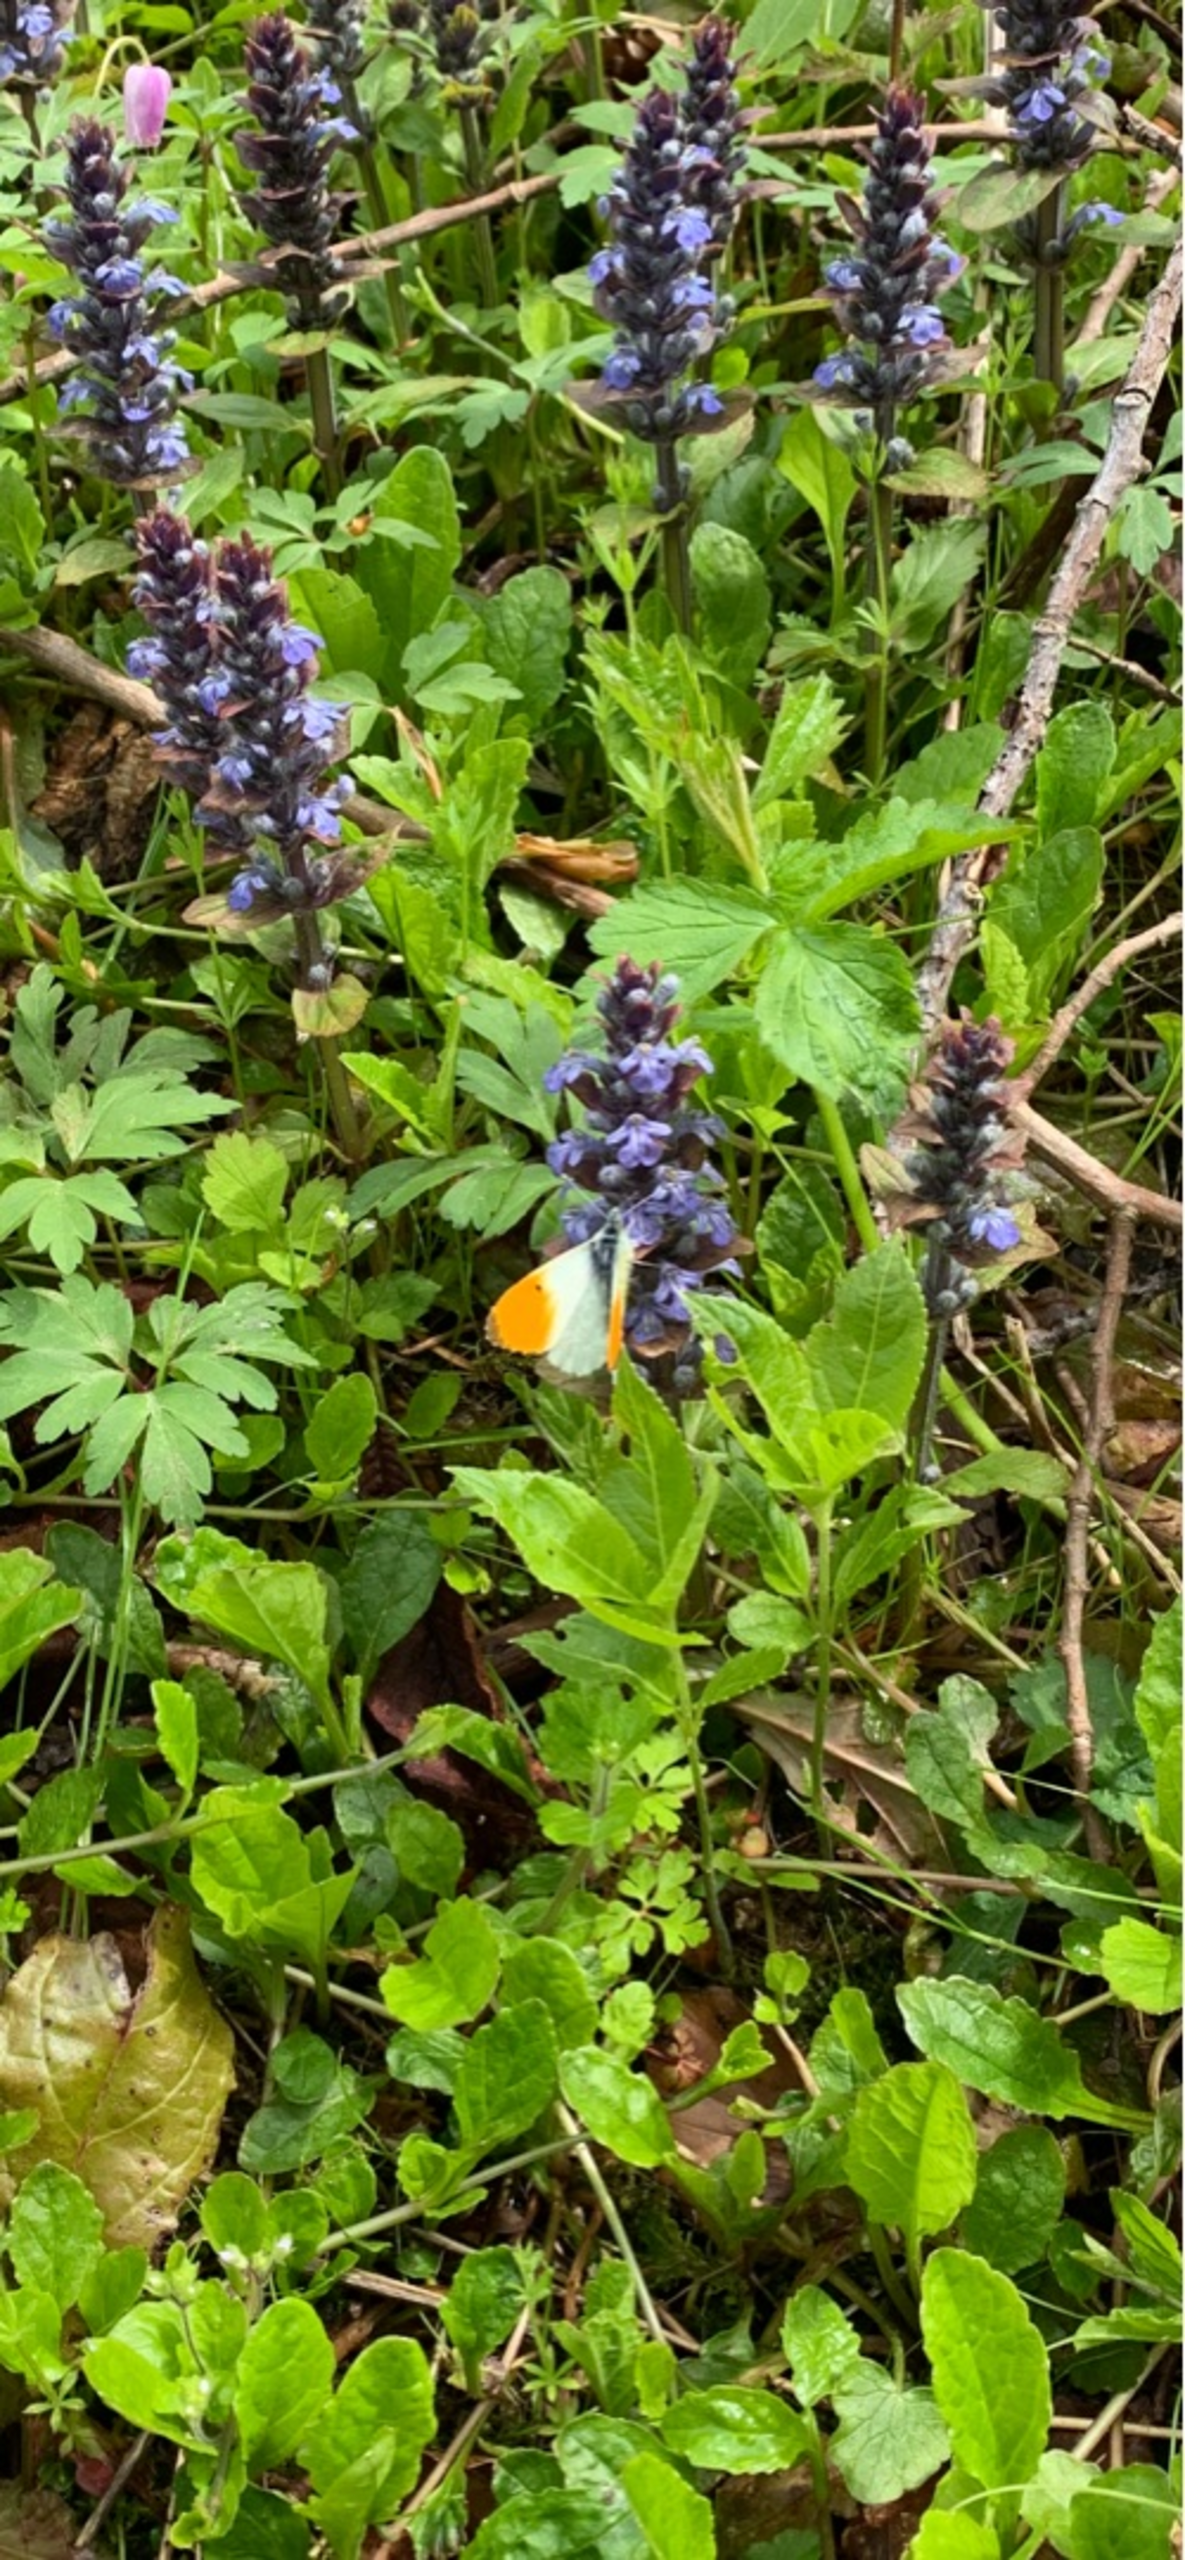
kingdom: Plantae
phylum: Tracheophyta
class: Magnoliopsida
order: Lamiales
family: Lamiaceae
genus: Ajuga
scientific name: Ajuga reptans
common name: Krybende læbeløs
